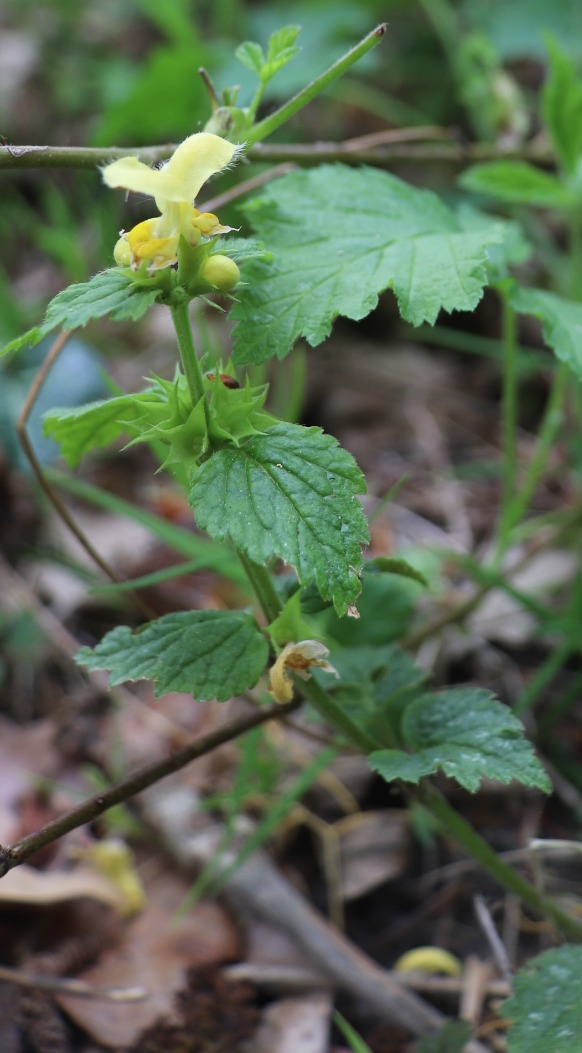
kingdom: Plantae
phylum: Tracheophyta
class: Magnoliopsida
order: Lamiales
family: Lamiaceae
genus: Lamium
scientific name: Lamium galeobdolon
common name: Guldnælde
